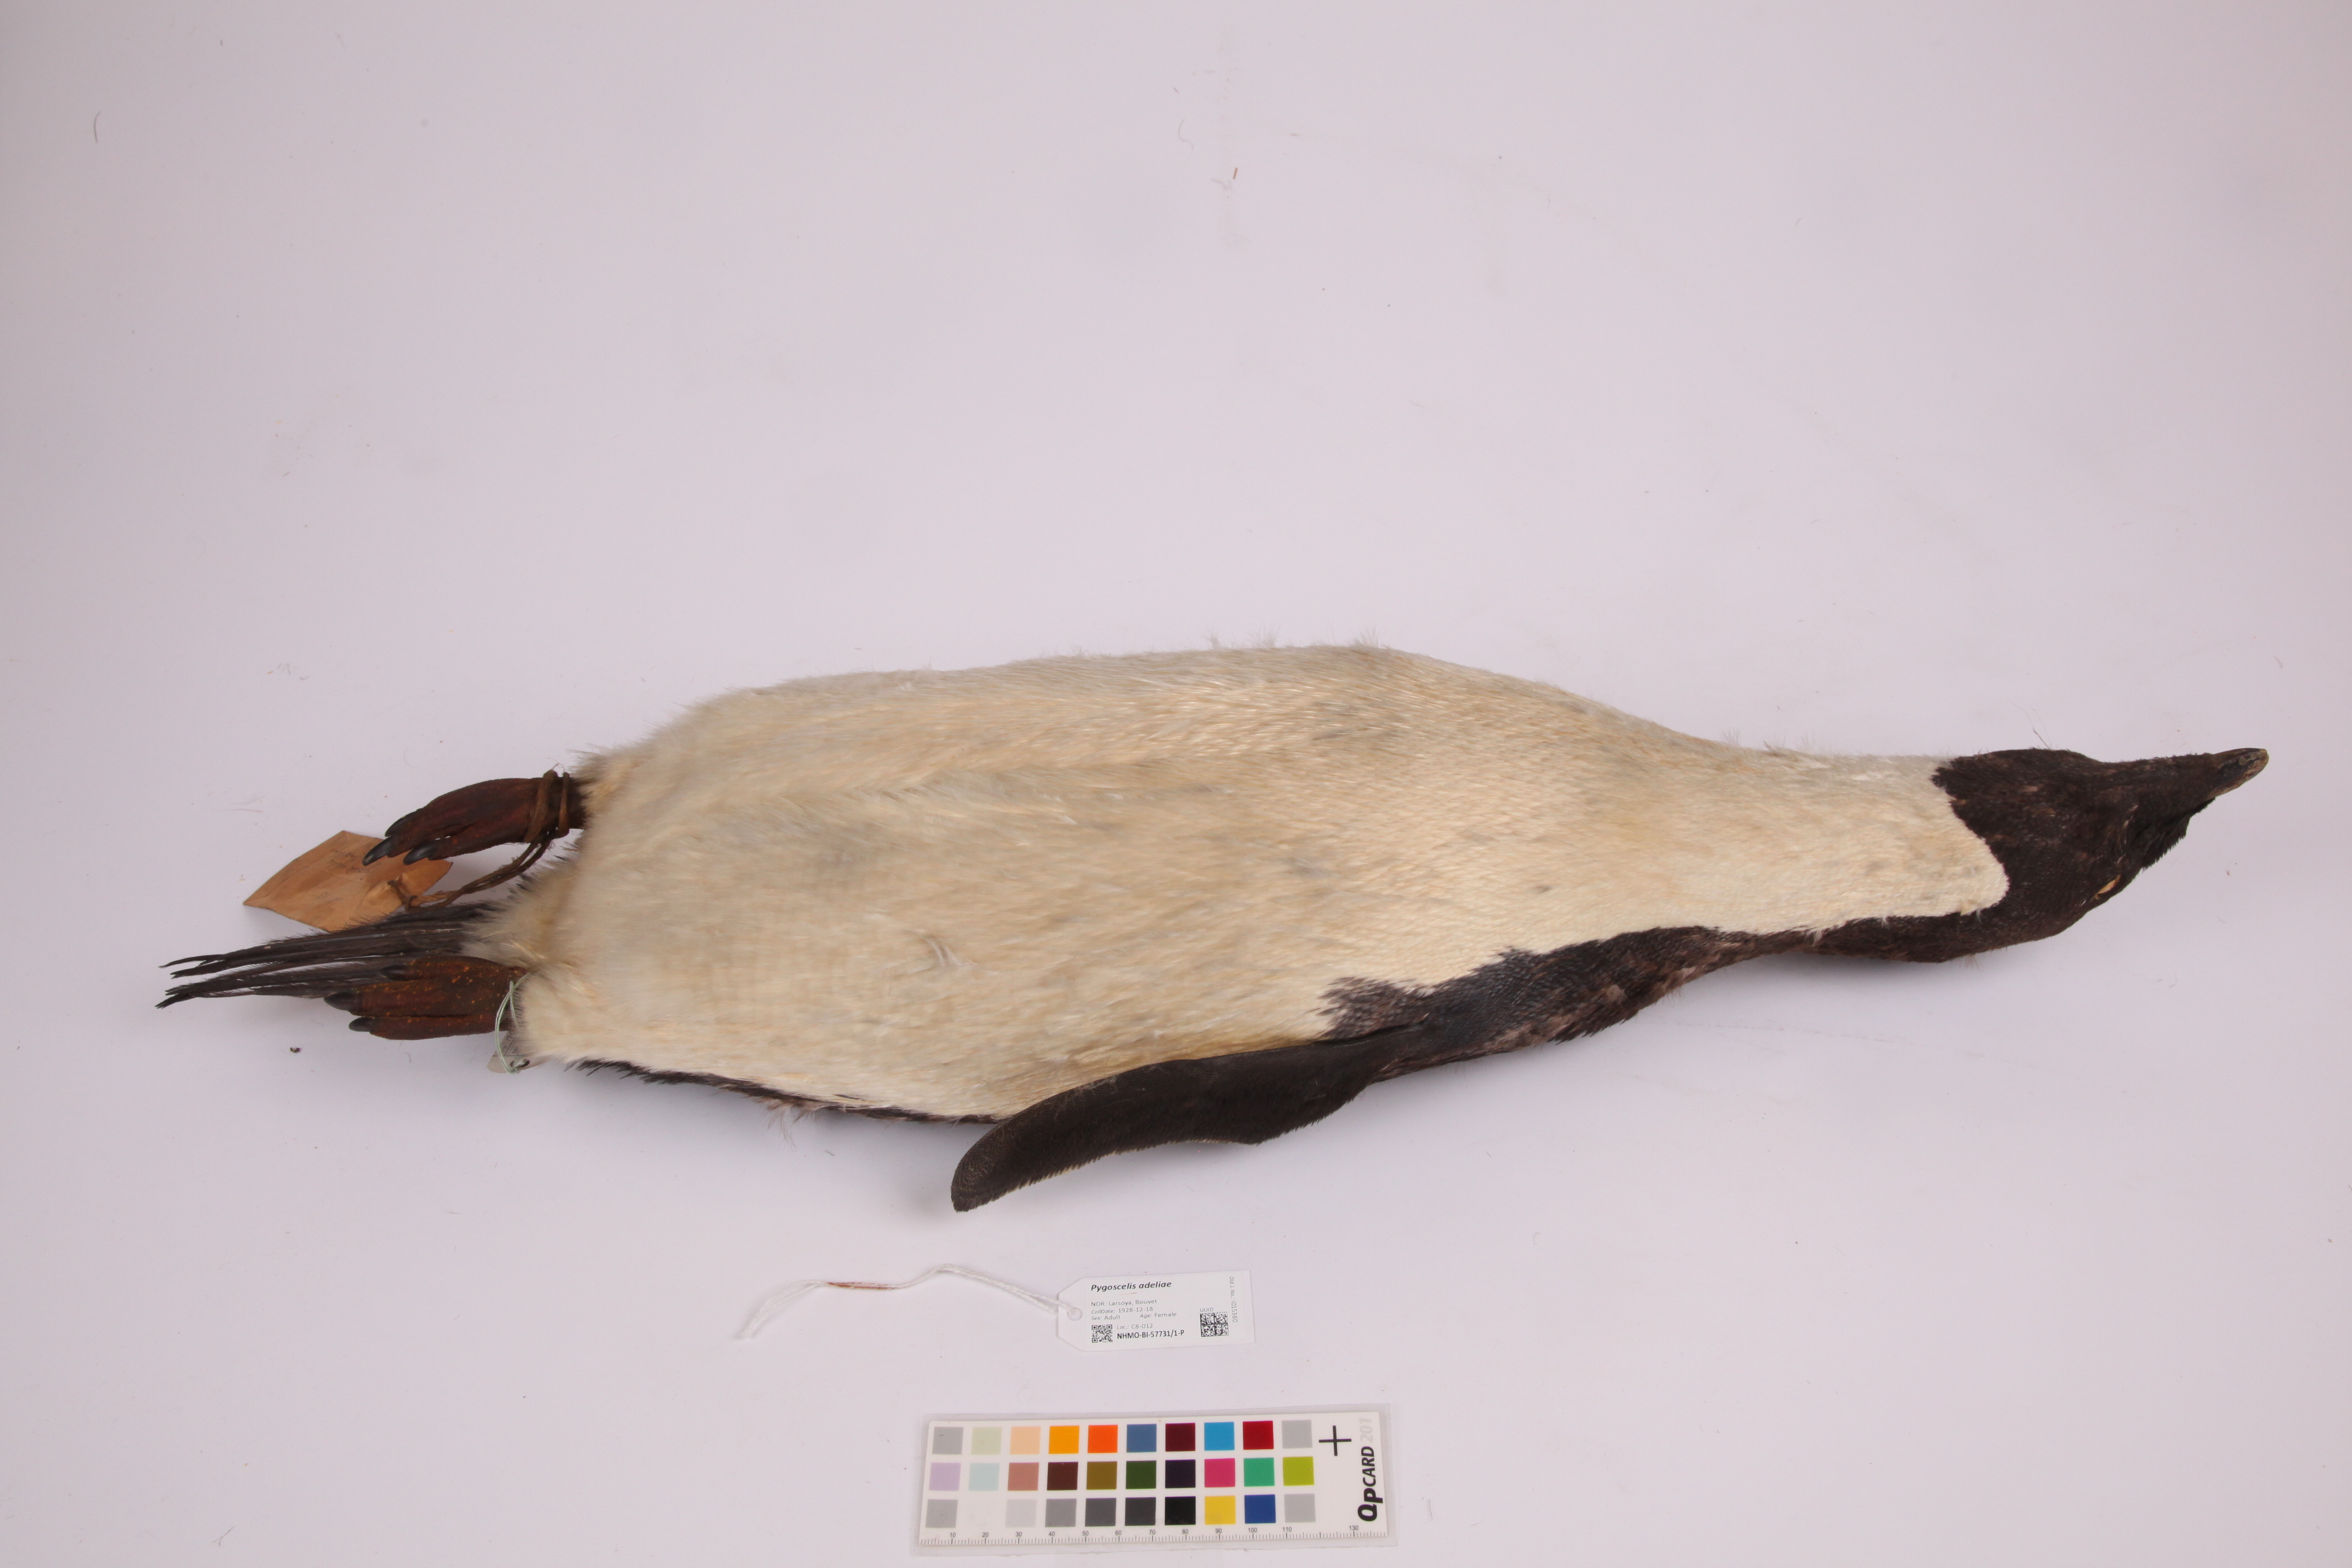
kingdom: Animalia
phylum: Chordata
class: Aves
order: Sphenisciformes
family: Spheniscidae
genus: Pygoscelis
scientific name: Pygoscelis adeliae
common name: Adelie penguin
